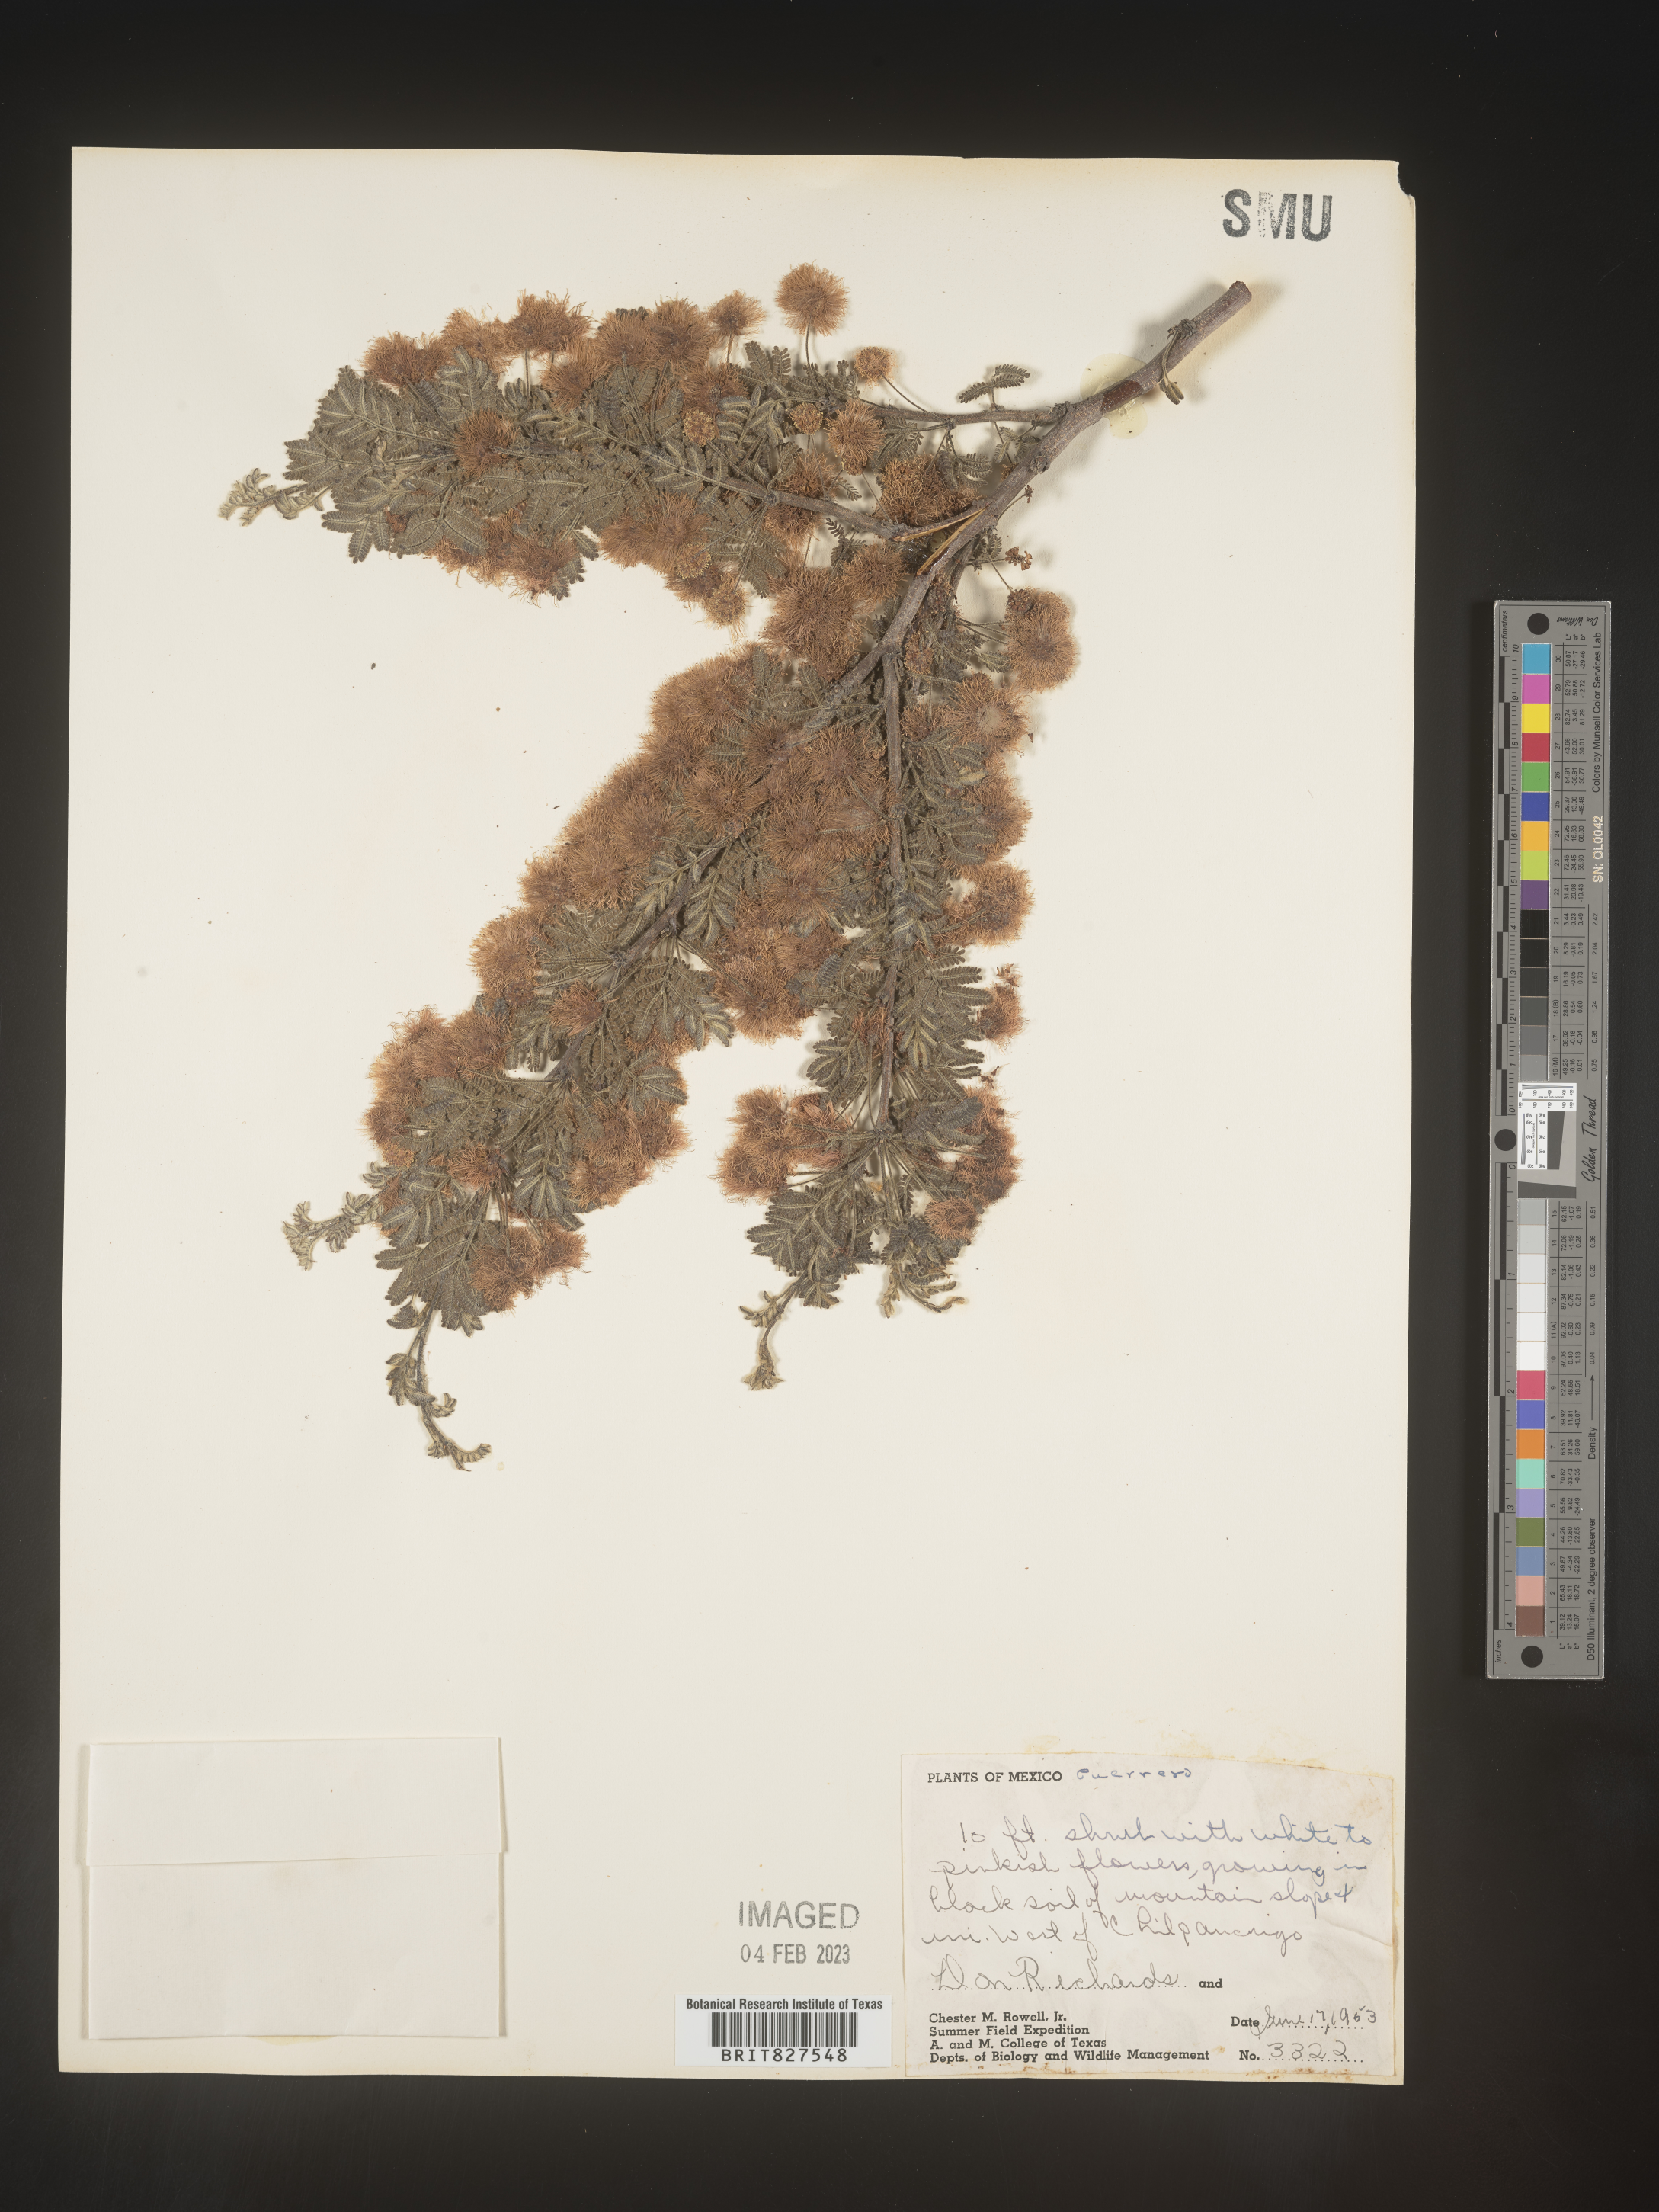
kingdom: Plantae
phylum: Tracheophyta
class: Magnoliopsida
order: Fabales
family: Fabaceae
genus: Mimosa
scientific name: Mimosa
